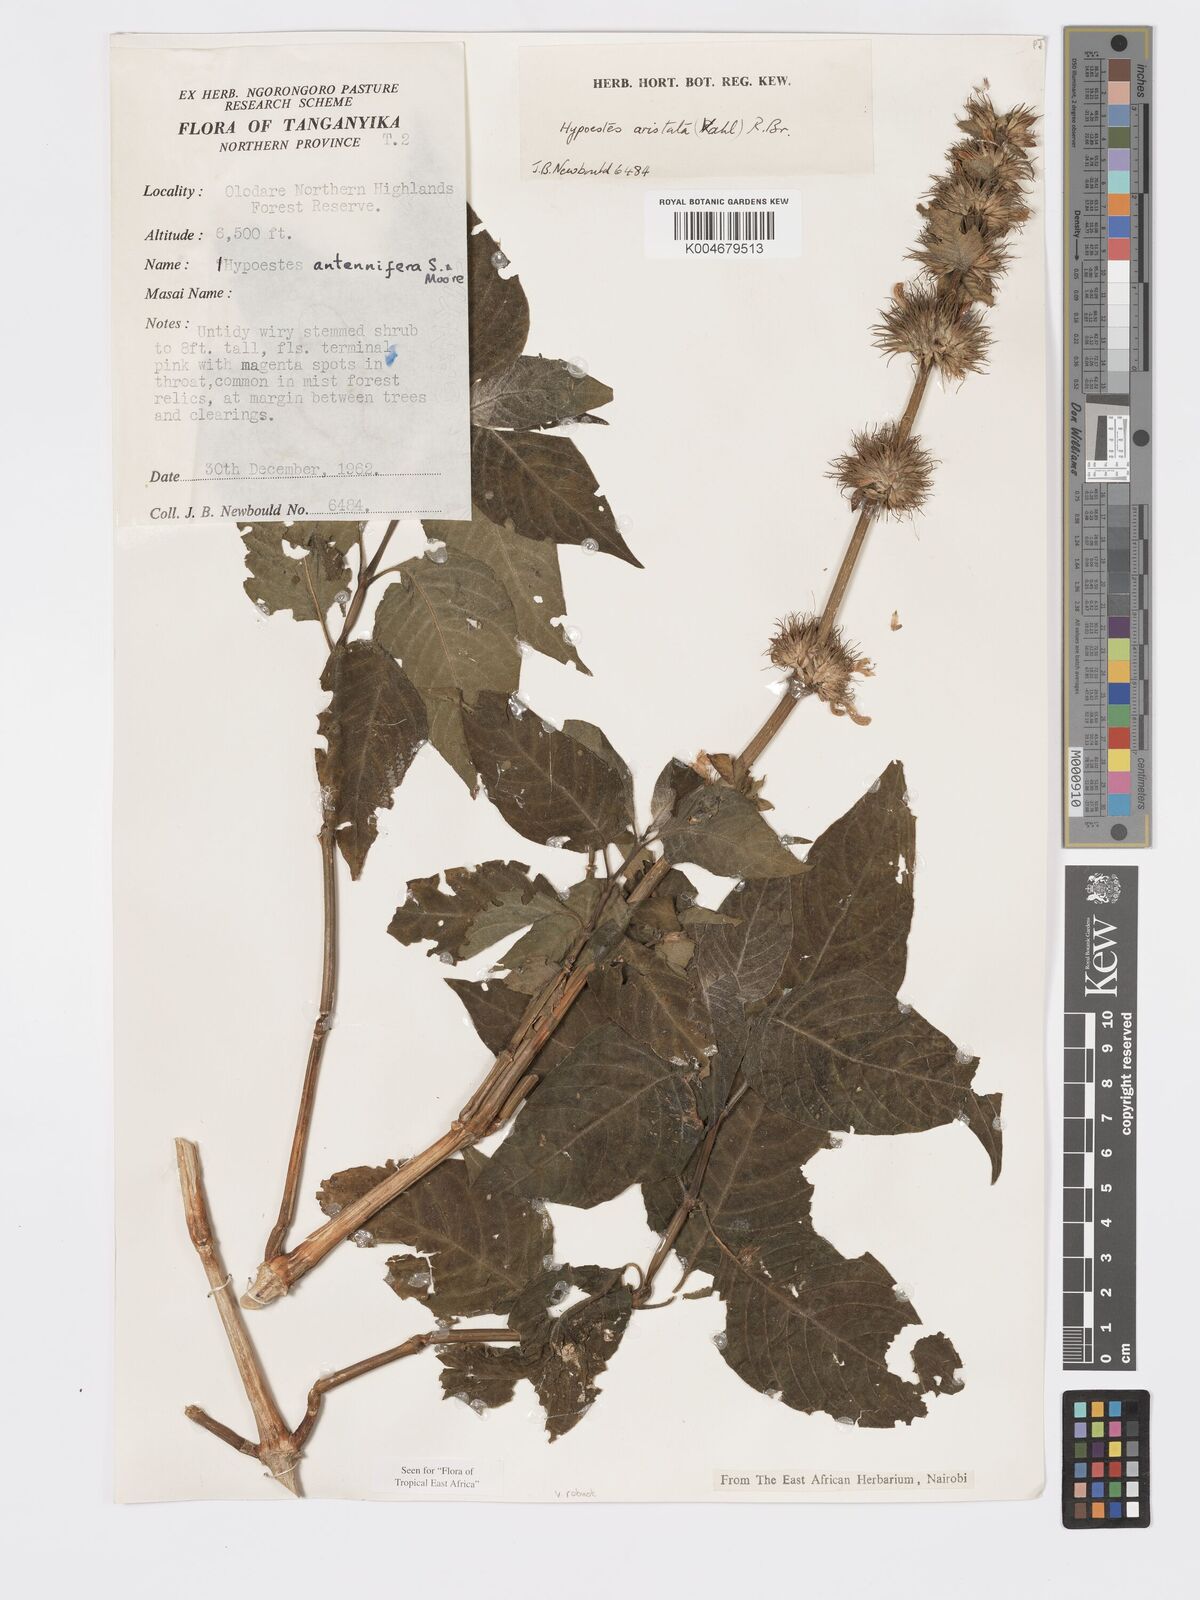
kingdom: Plantae
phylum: Tracheophyta
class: Magnoliopsida
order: Lamiales
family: Acanthaceae
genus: Hypoestes
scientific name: Hypoestes aristata
